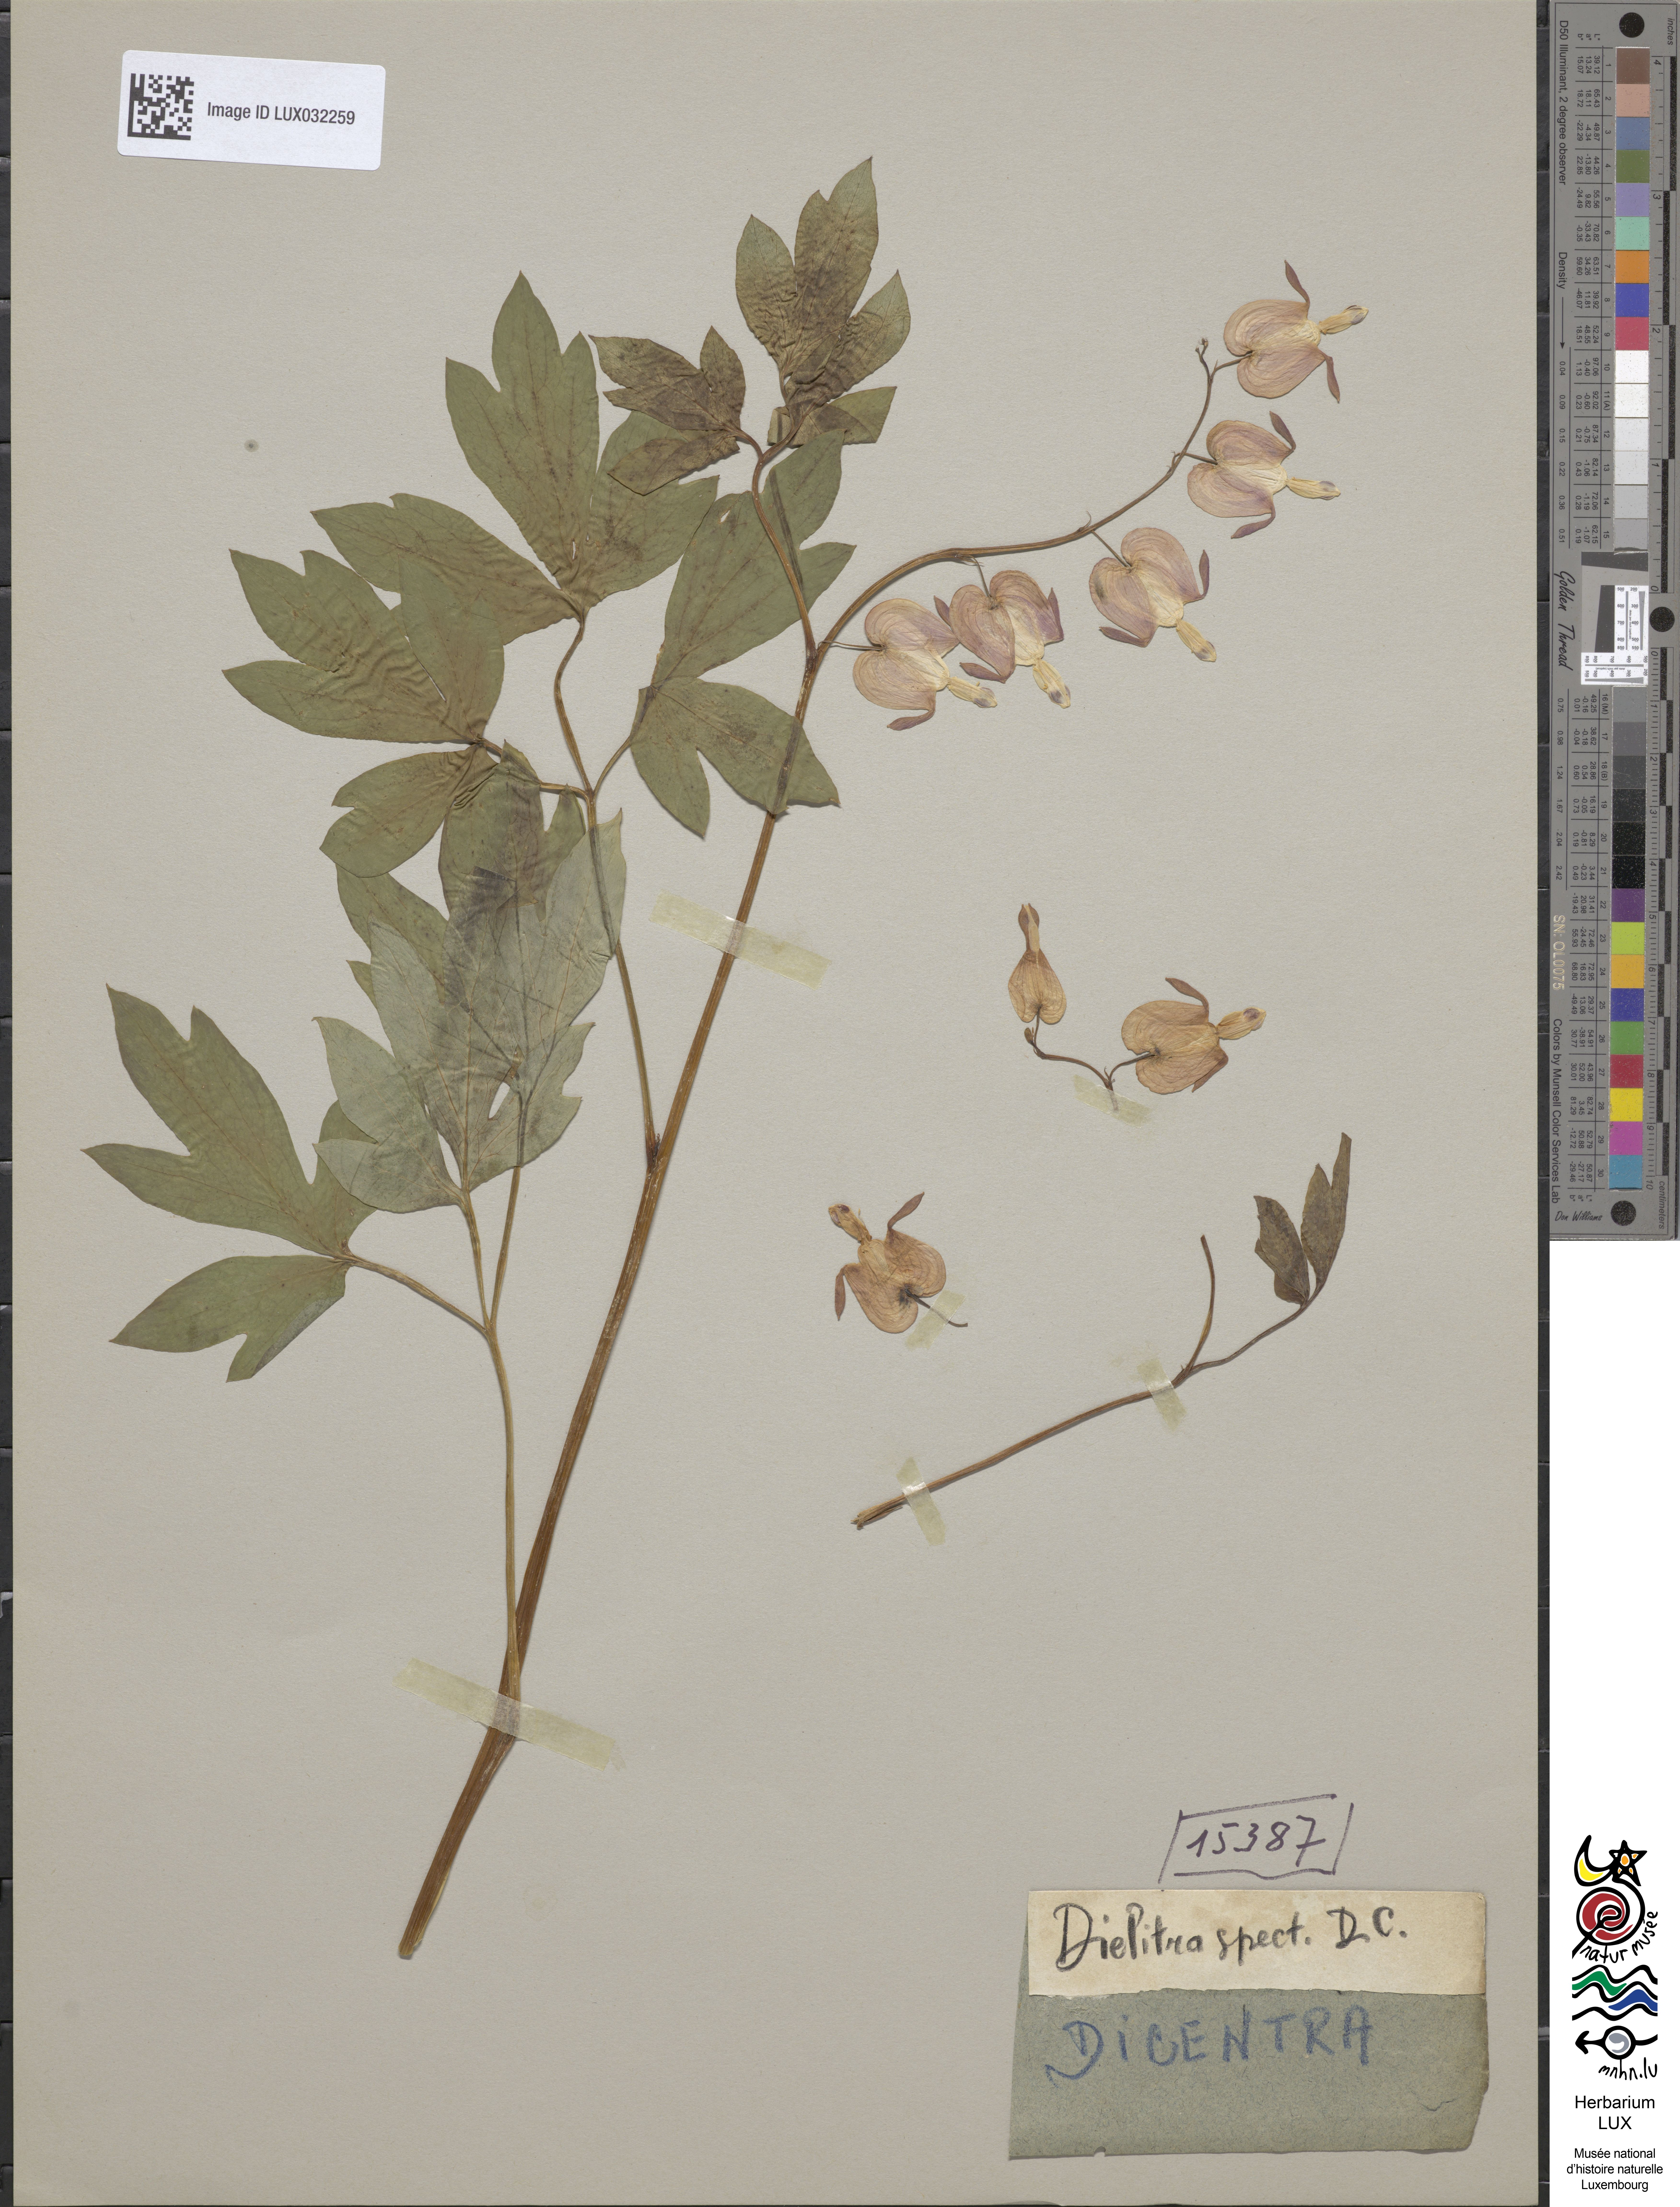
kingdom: Plantae
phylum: Tracheophyta
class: Magnoliopsida
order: Ranunculales
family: Papaveraceae
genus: Lamprocapnos
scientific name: Lamprocapnos spectabilis
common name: Asian bleeding-heart
